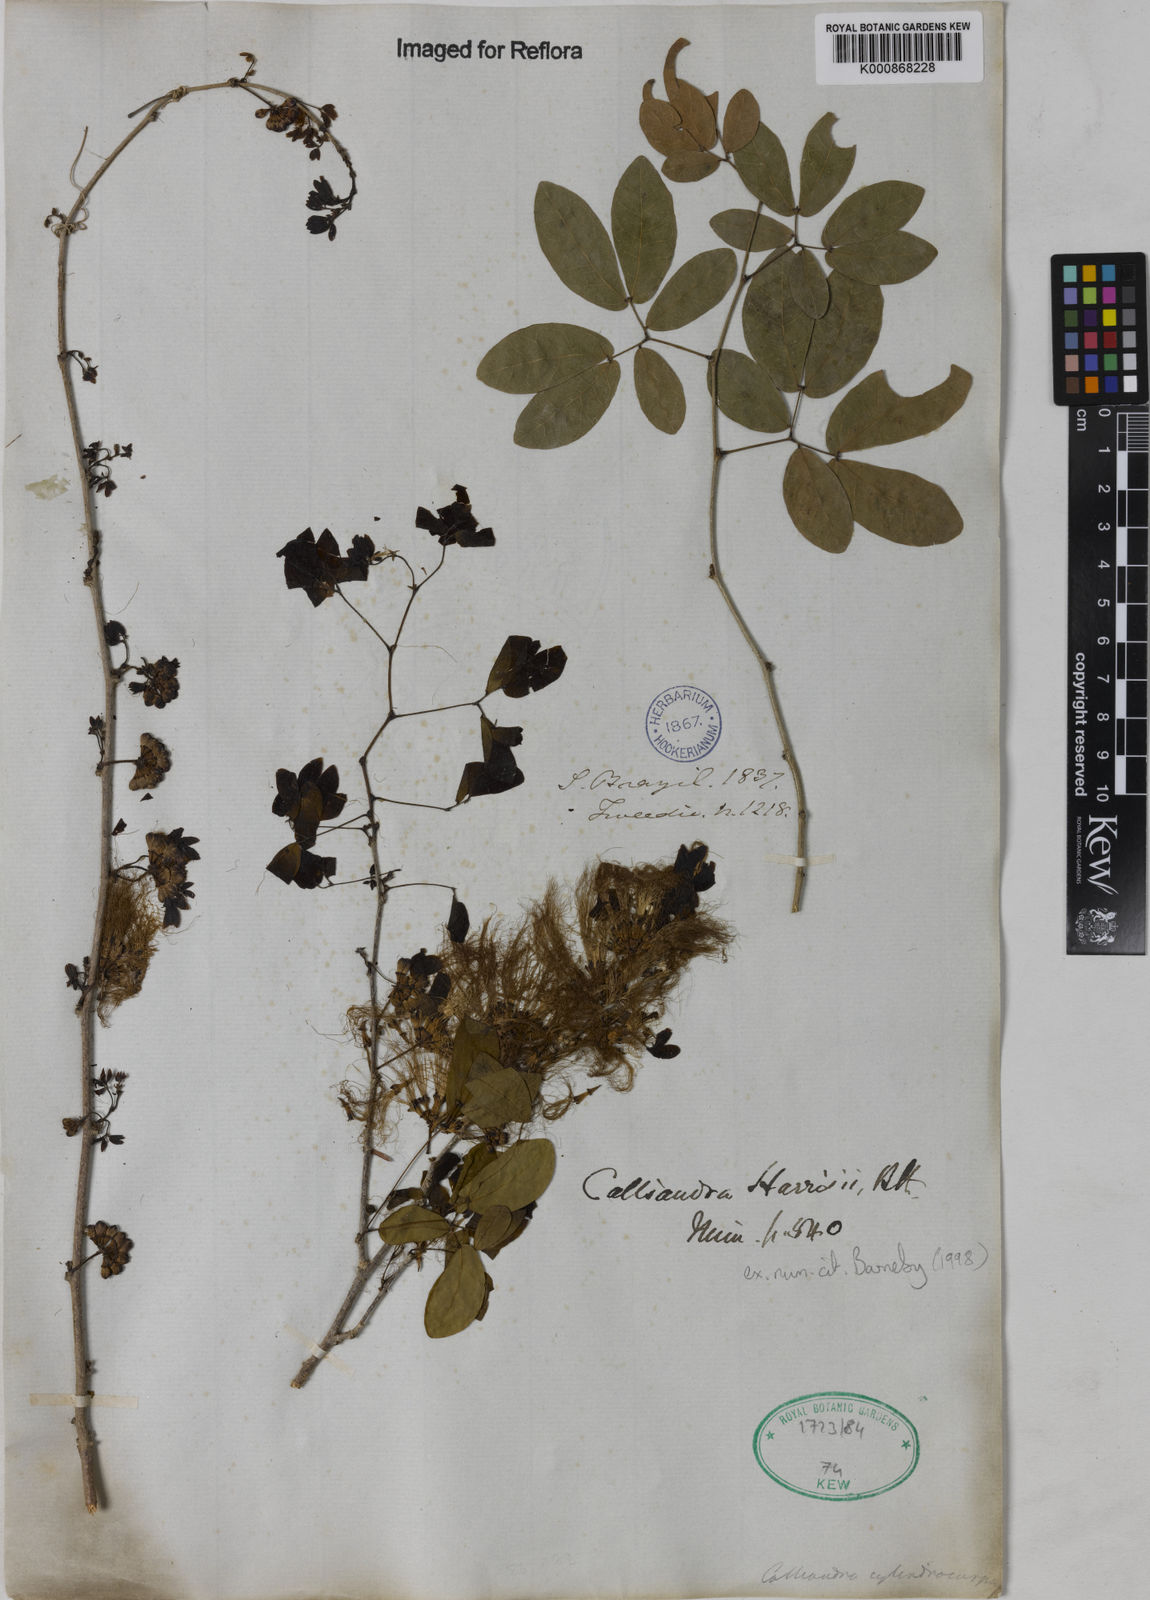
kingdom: Plantae
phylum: Tracheophyta
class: Magnoliopsida
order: Fabales
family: Fabaceae
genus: Calliandra
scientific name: Calliandra harrisii
